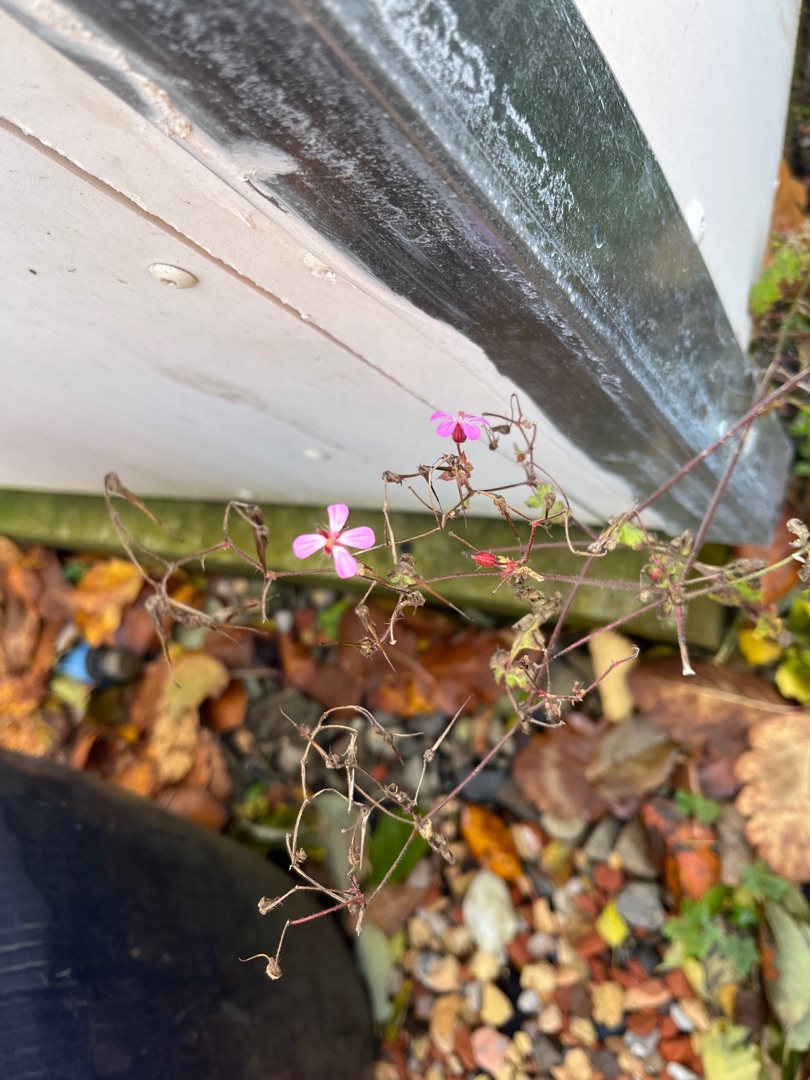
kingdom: Plantae
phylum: Tracheophyta
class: Magnoliopsida
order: Geraniales
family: Geraniaceae
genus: Geranium
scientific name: Geranium robertianum
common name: Stinkende storkenæb
